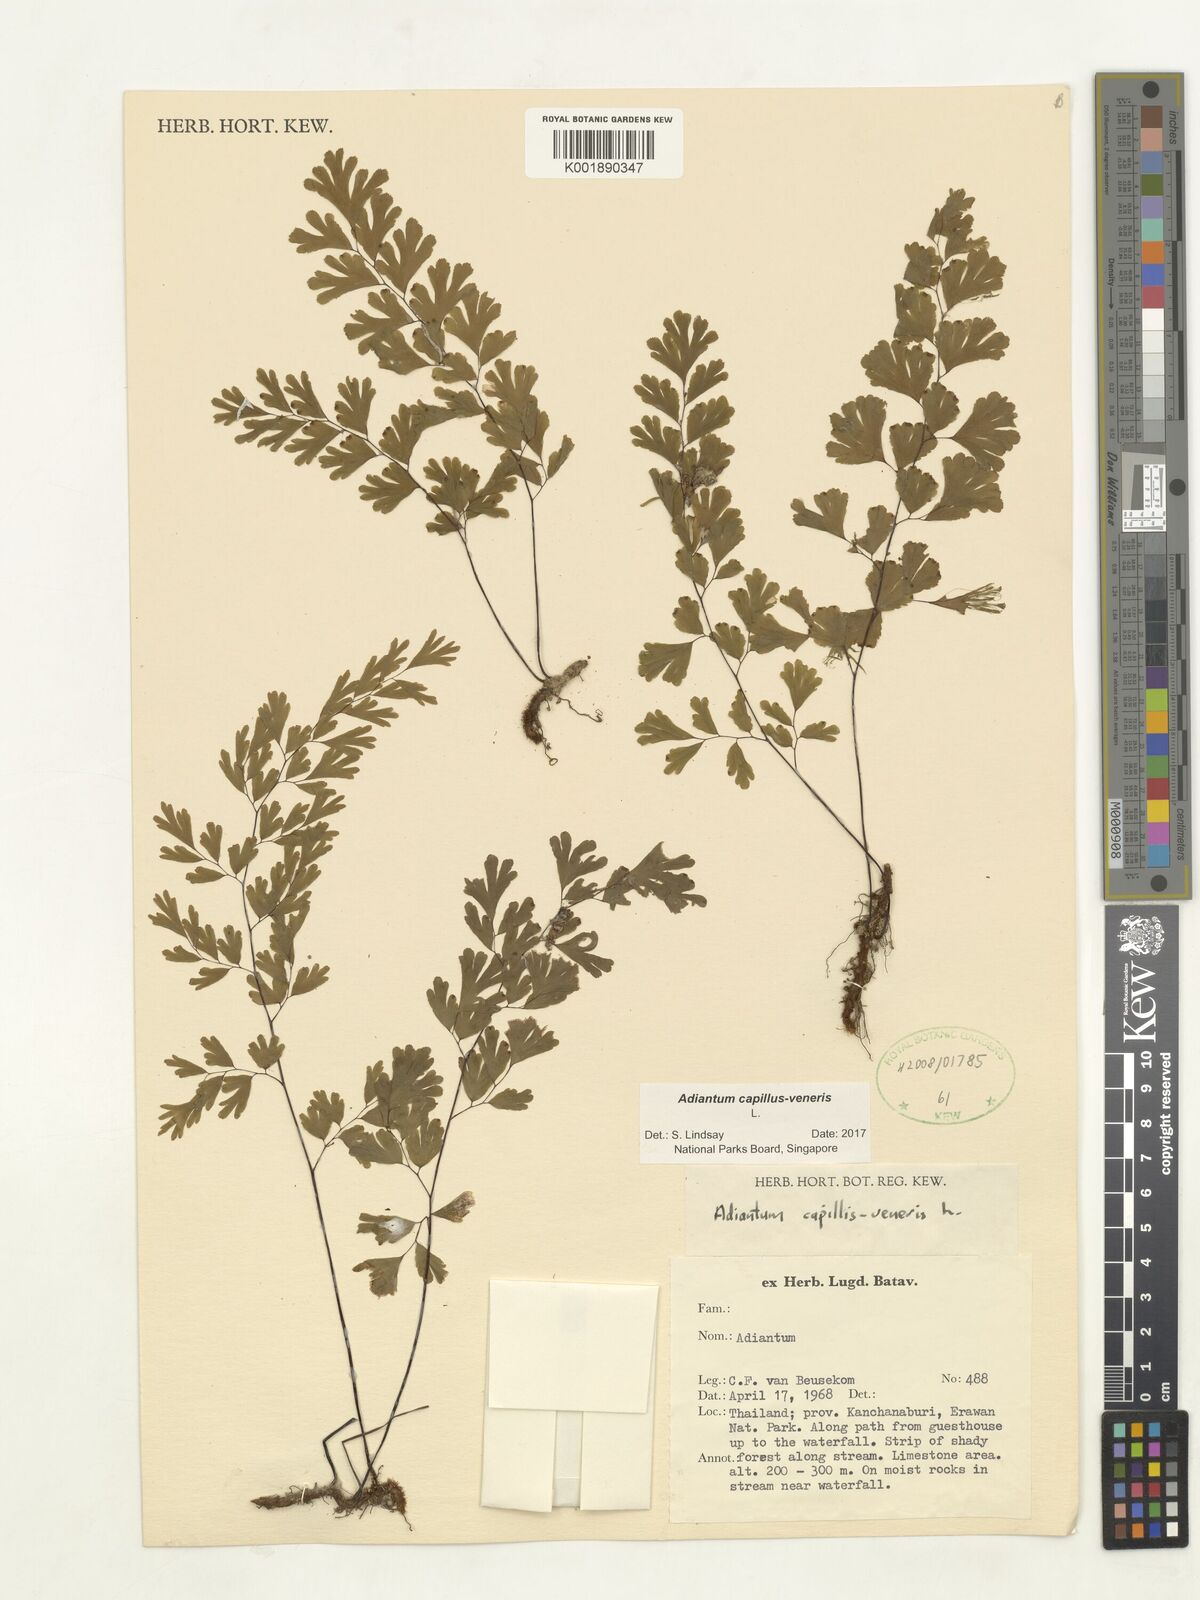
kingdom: Plantae
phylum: Tracheophyta
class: Polypodiopsida
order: Polypodiales
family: Pteridaceae
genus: Adiantum
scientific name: Adiantum capillus-veneris
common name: Maidenhair fern
